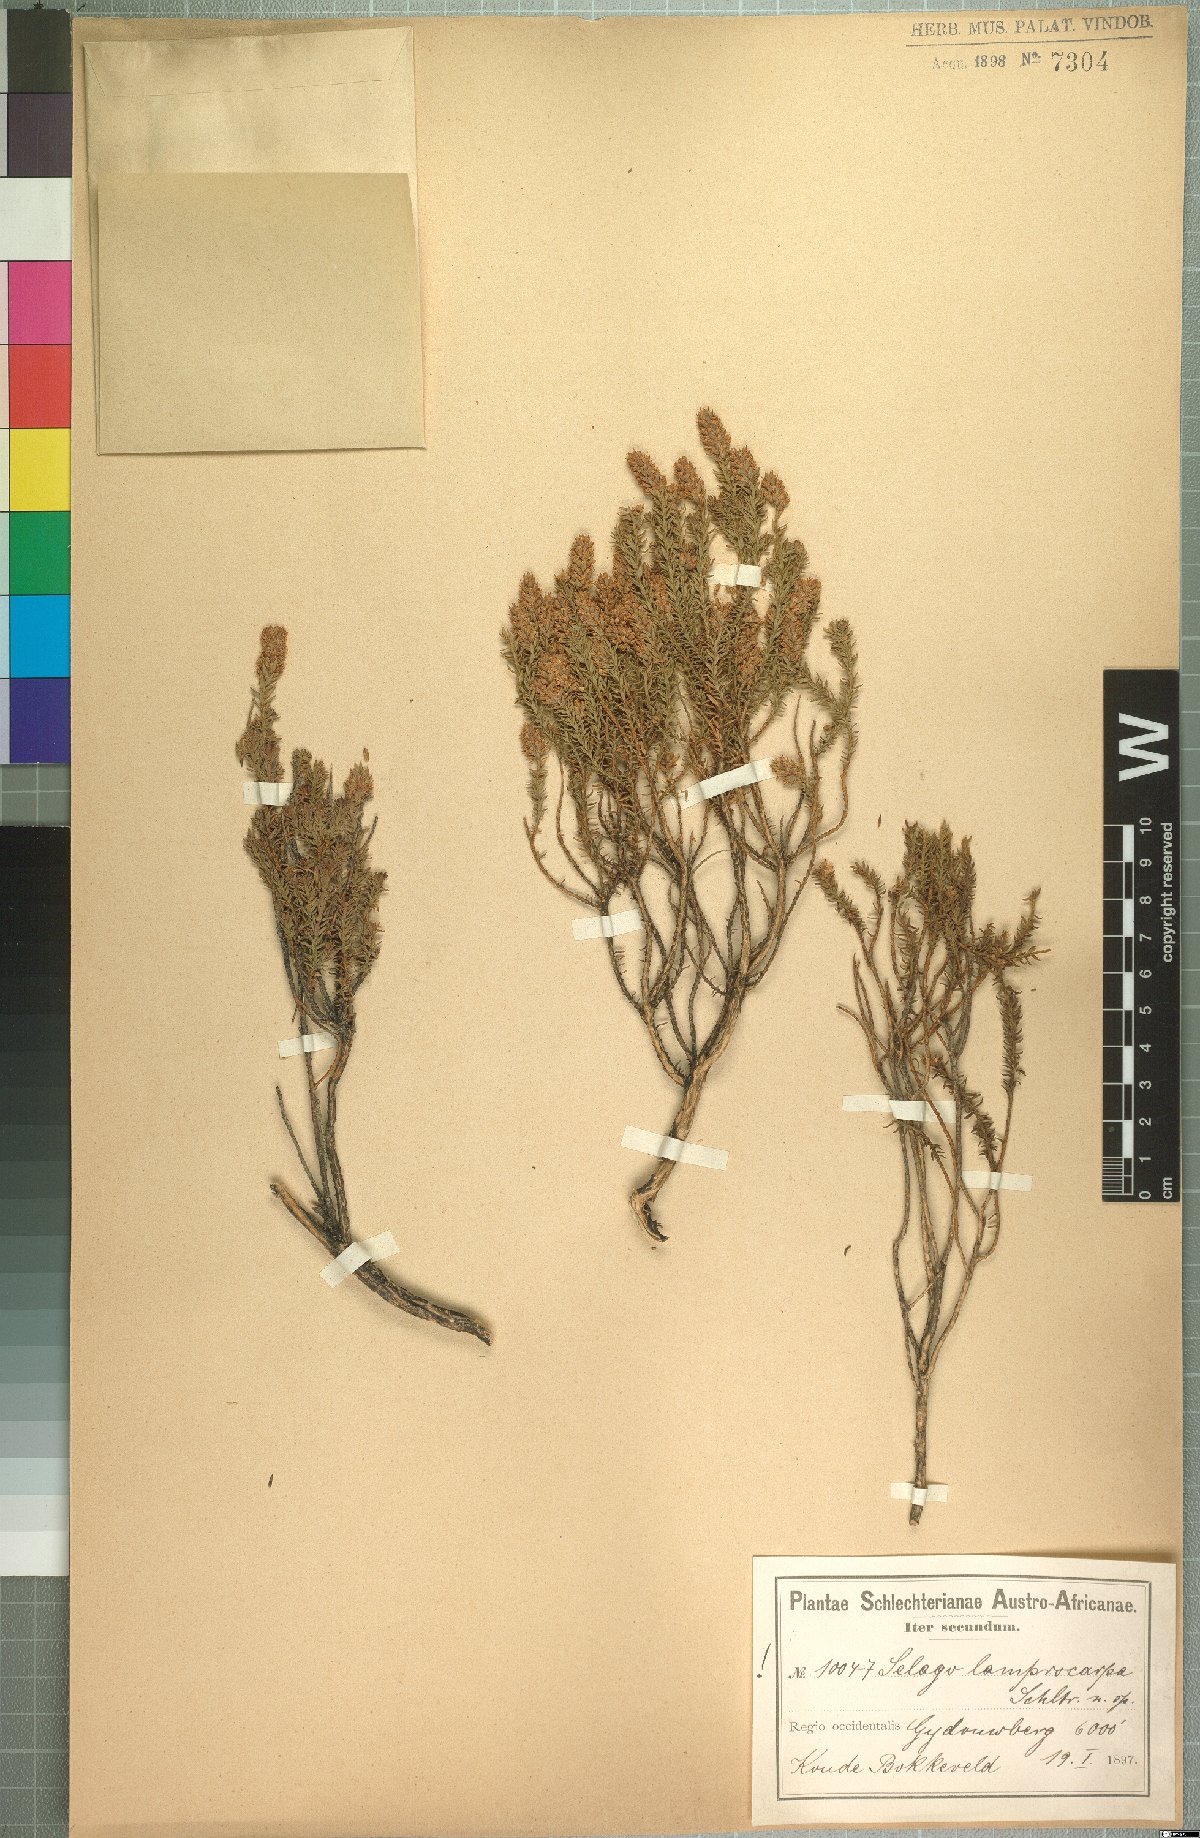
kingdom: Plantae
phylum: Tracheophyta
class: Magnoliopsida
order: Lamiales
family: Scrophulariaceae
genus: Selago
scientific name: Selago lamprocarpa
